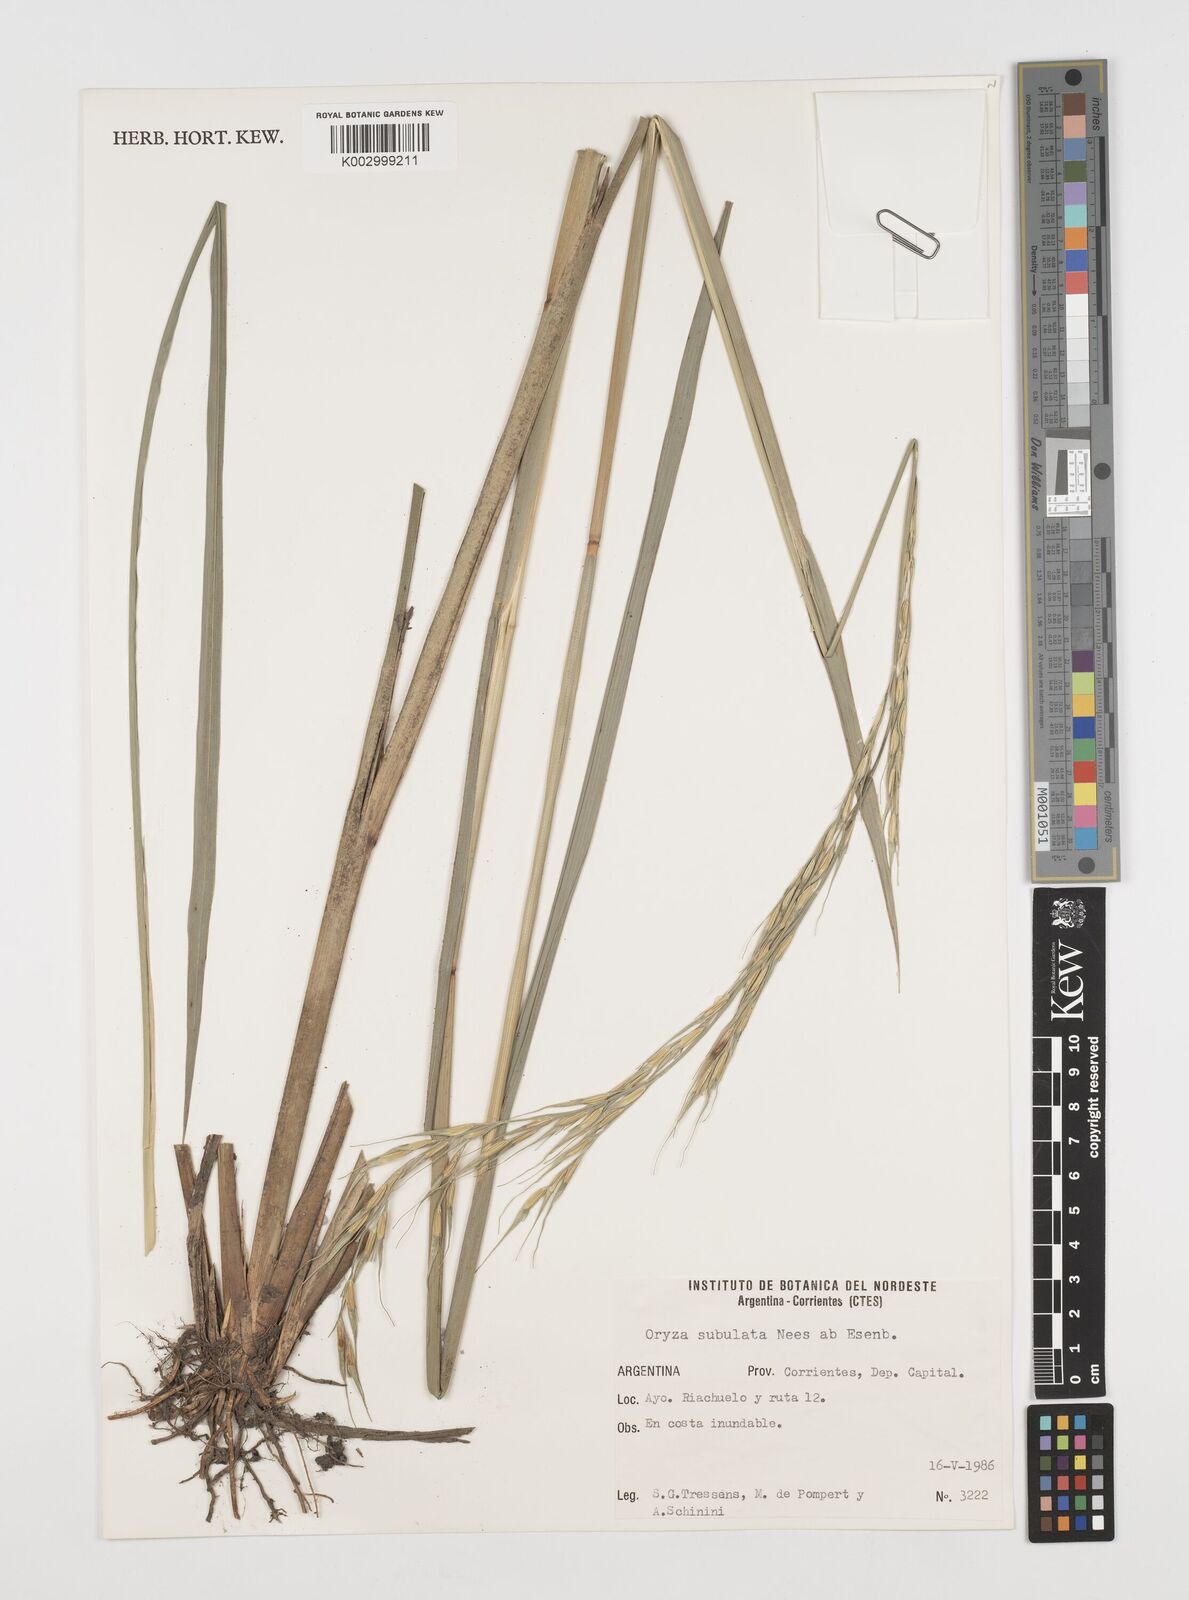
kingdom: Plantae
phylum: Tracheophyta
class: Liliopsida
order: Poales
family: Poaceae
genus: Rhynchoryza
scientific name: Rhynchoryza subulata
